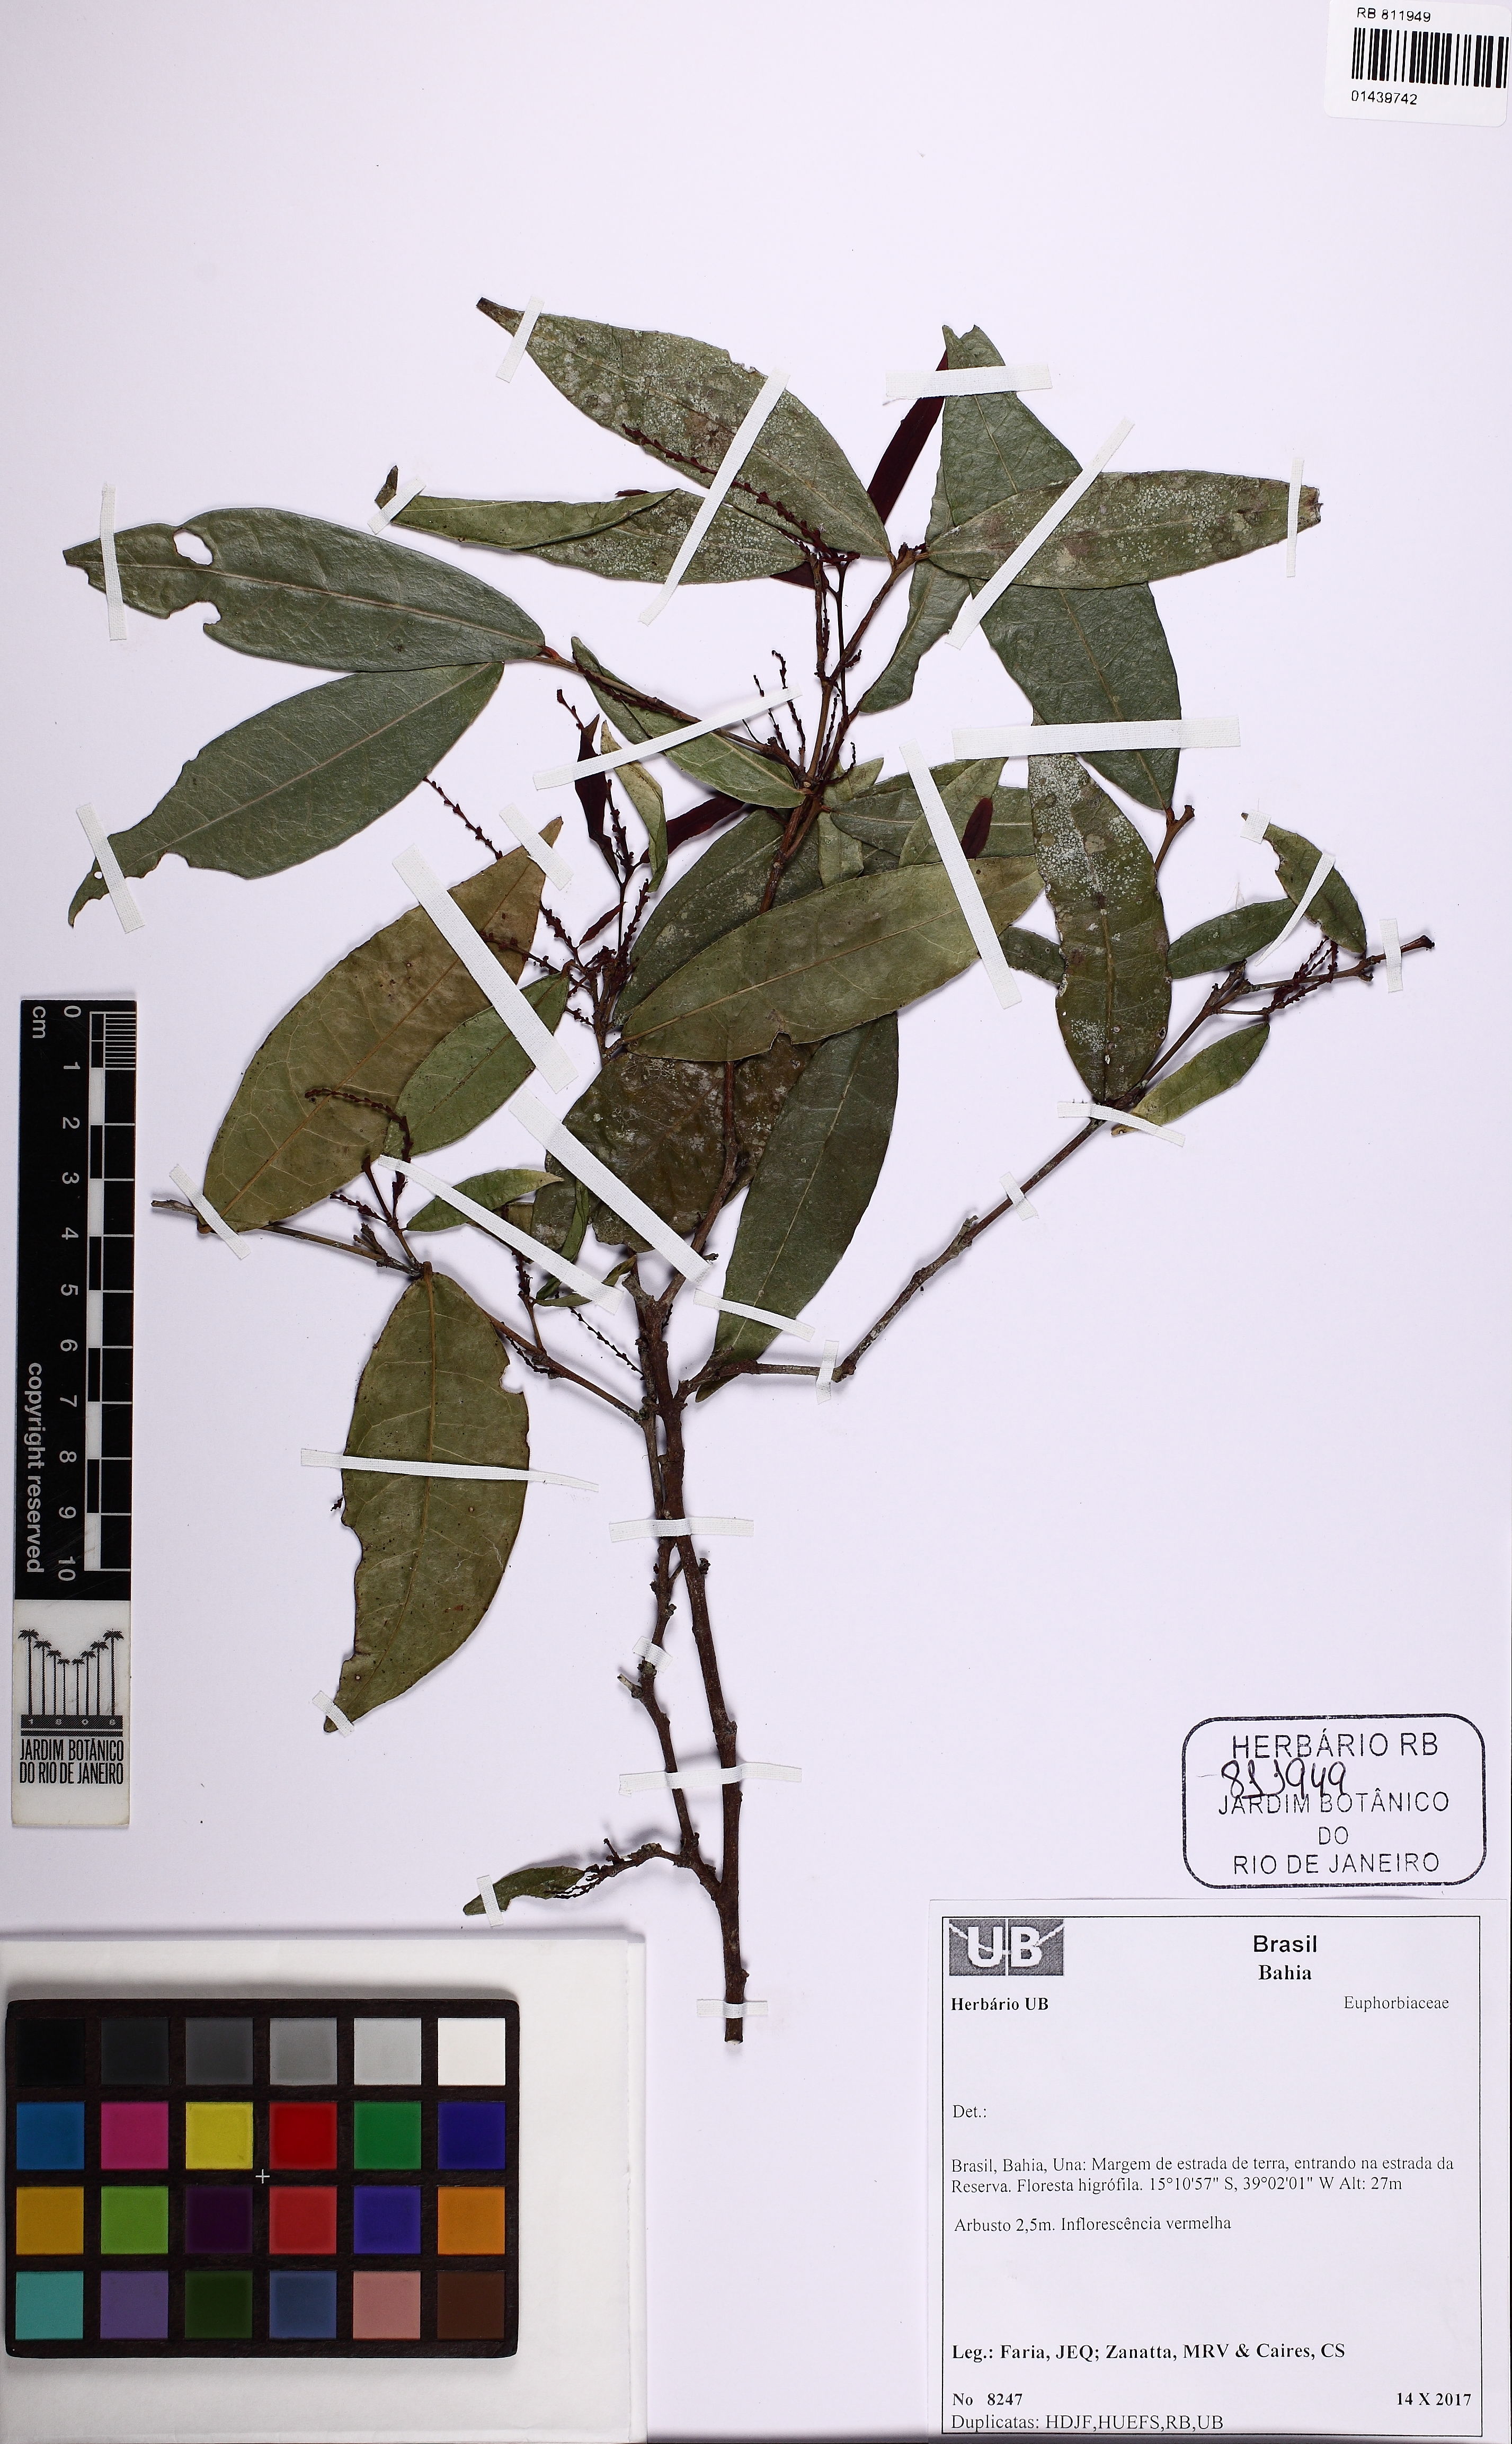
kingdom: Plantae
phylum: Tracheophyta
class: Magnoliopsida
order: Malpighiales
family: Euphorbiaceae
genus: Gymnanthes
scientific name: Gymnanthes glabrata
